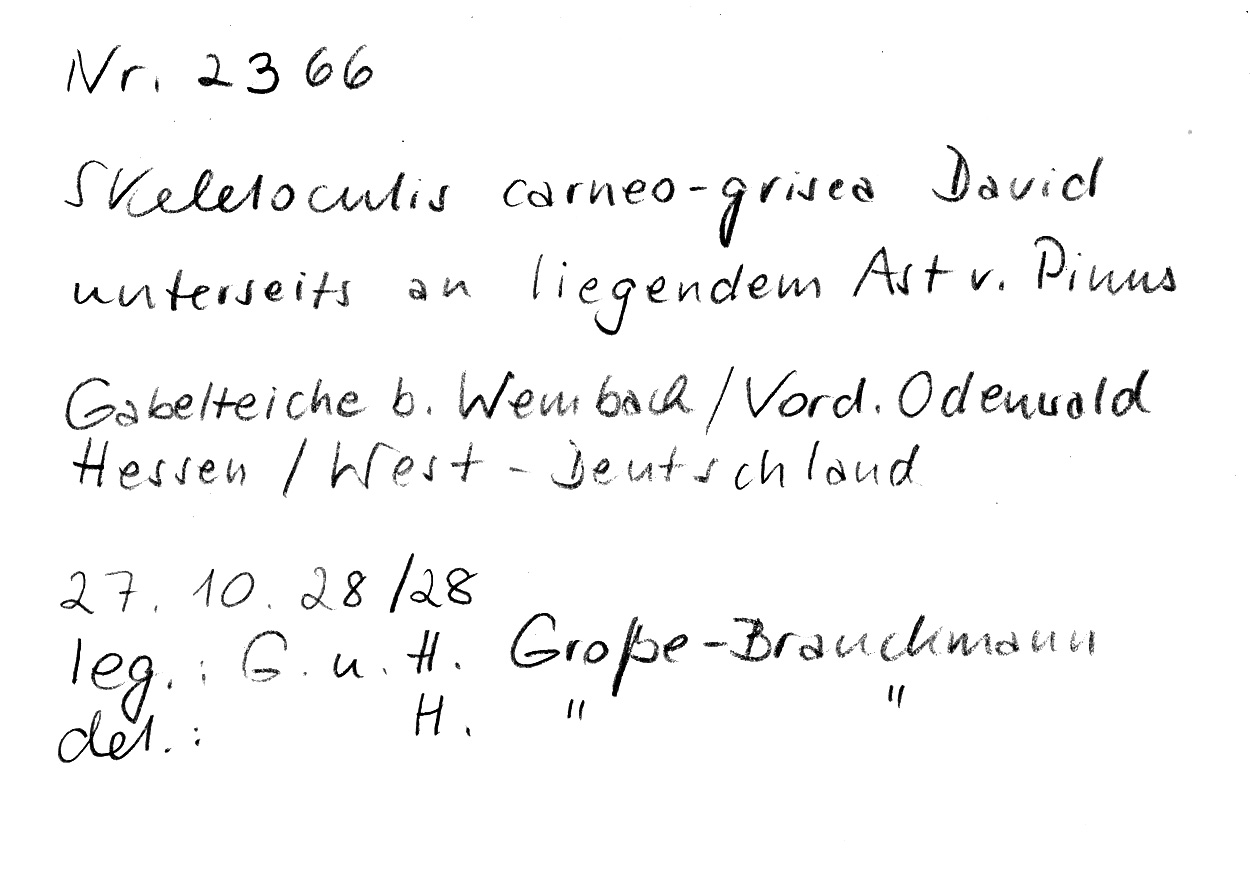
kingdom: Plantae
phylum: Tracheophyta
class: Pinopsida
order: Pinales
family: Pinaceae
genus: Pinus
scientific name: Pinus
